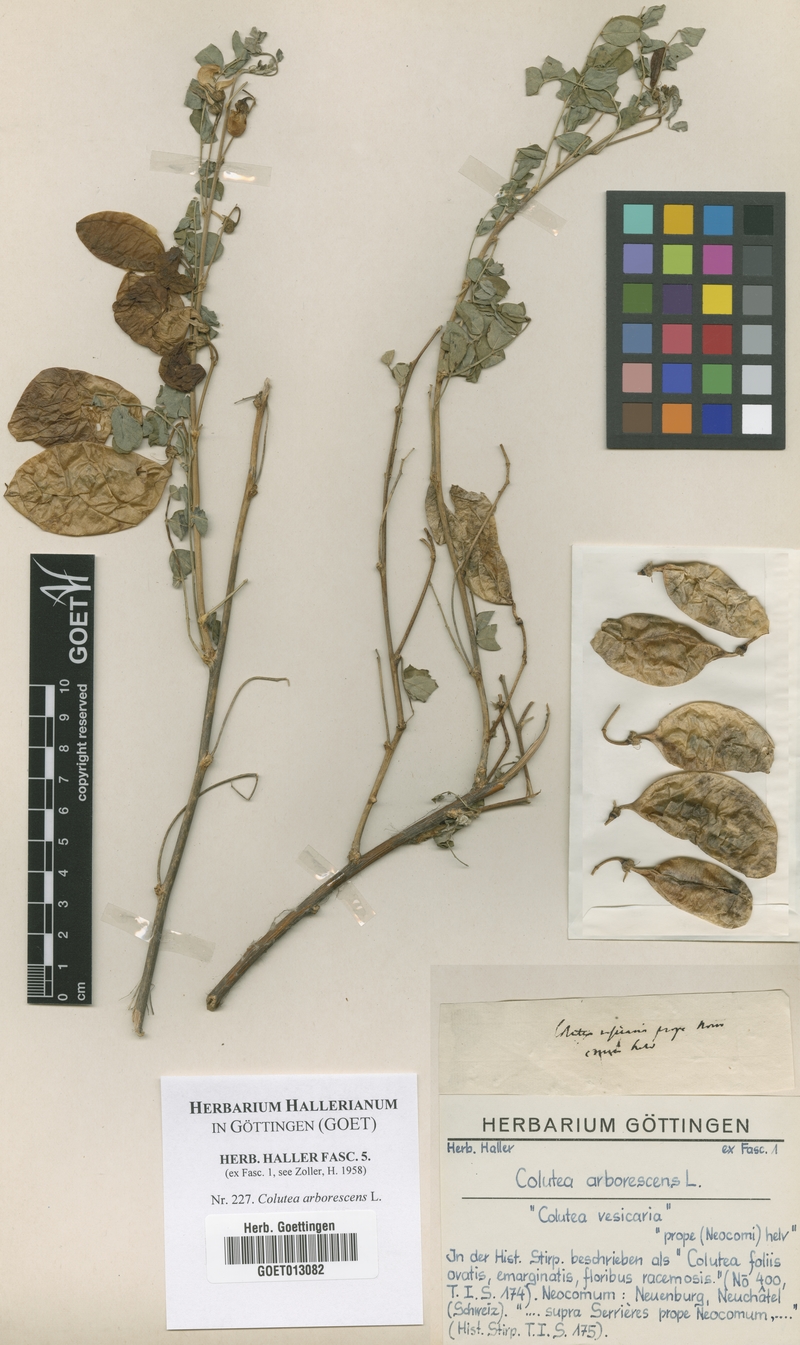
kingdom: Plantae
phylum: Tracheophyta
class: Magnoliopsida
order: Fabales
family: Fabaceae
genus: Colutea
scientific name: Colutea arborescens
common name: Bladder-senna
